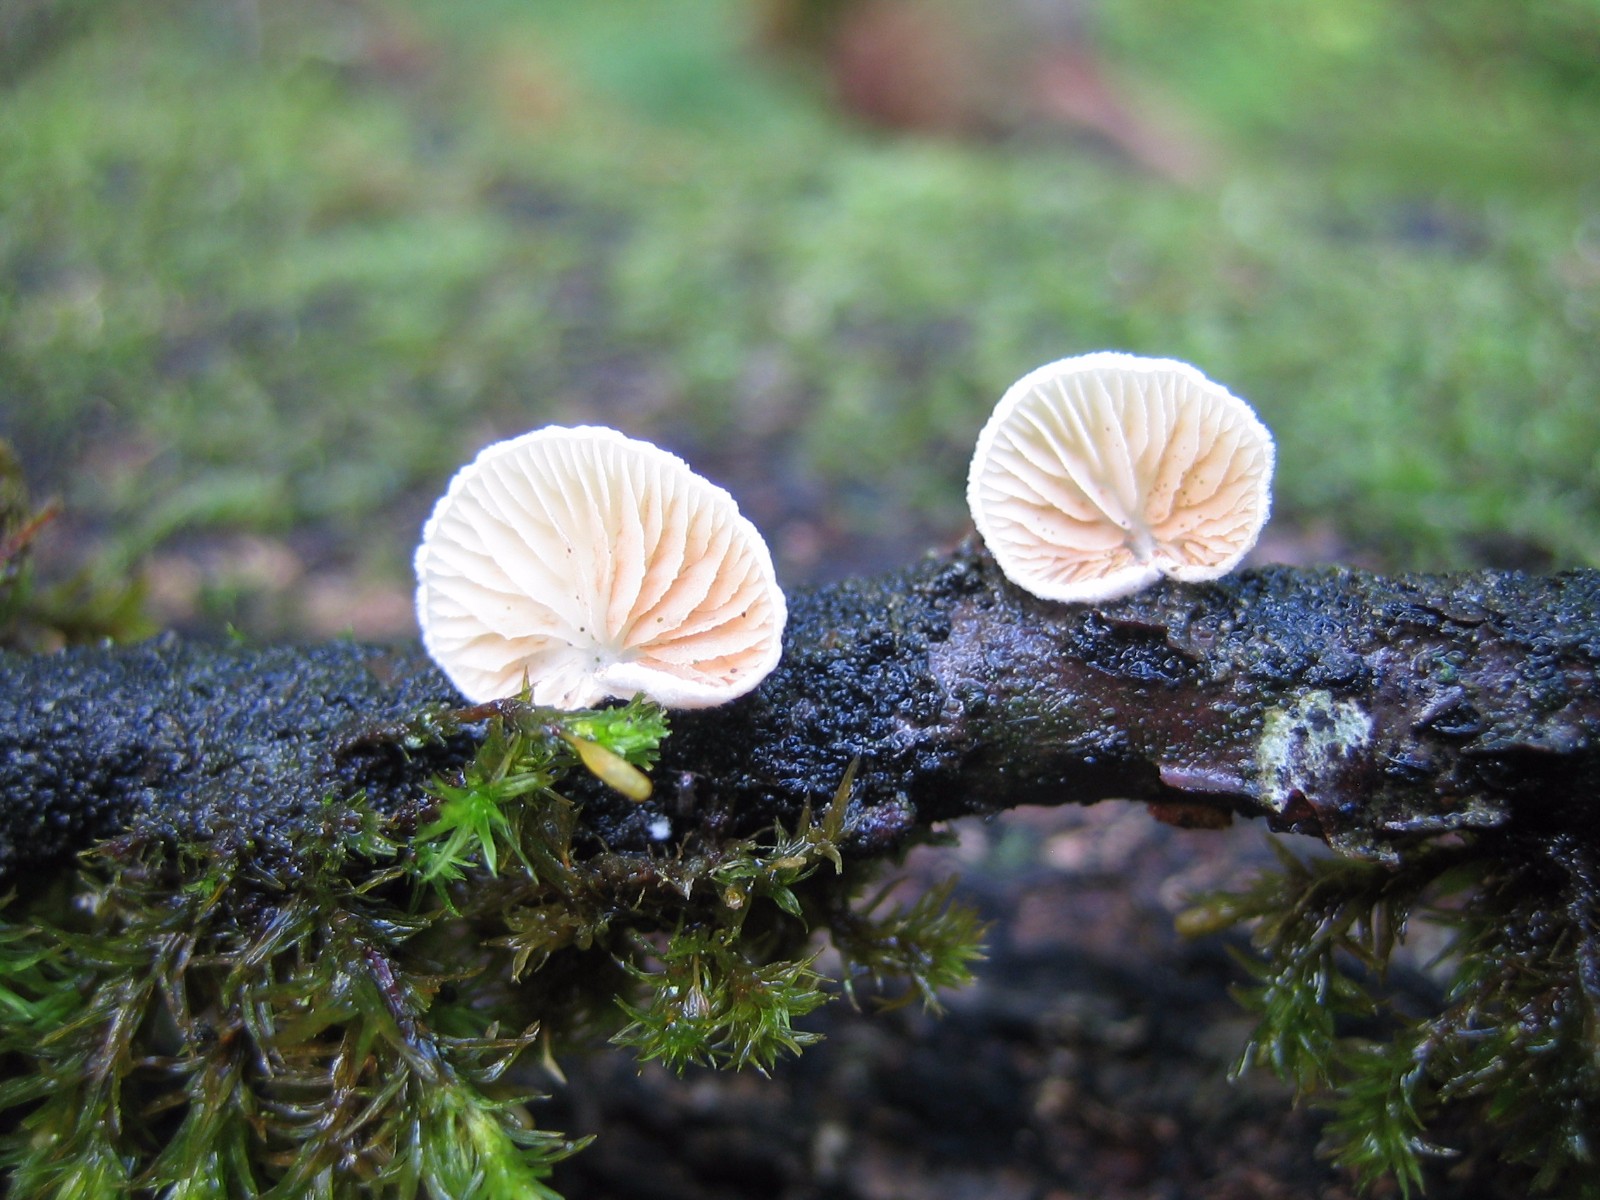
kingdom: Fungi
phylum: Basidiomycota
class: Agaricomycetes
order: Agaricales
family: Crepidotaceae
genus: Crepidotus
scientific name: Crepidotus
